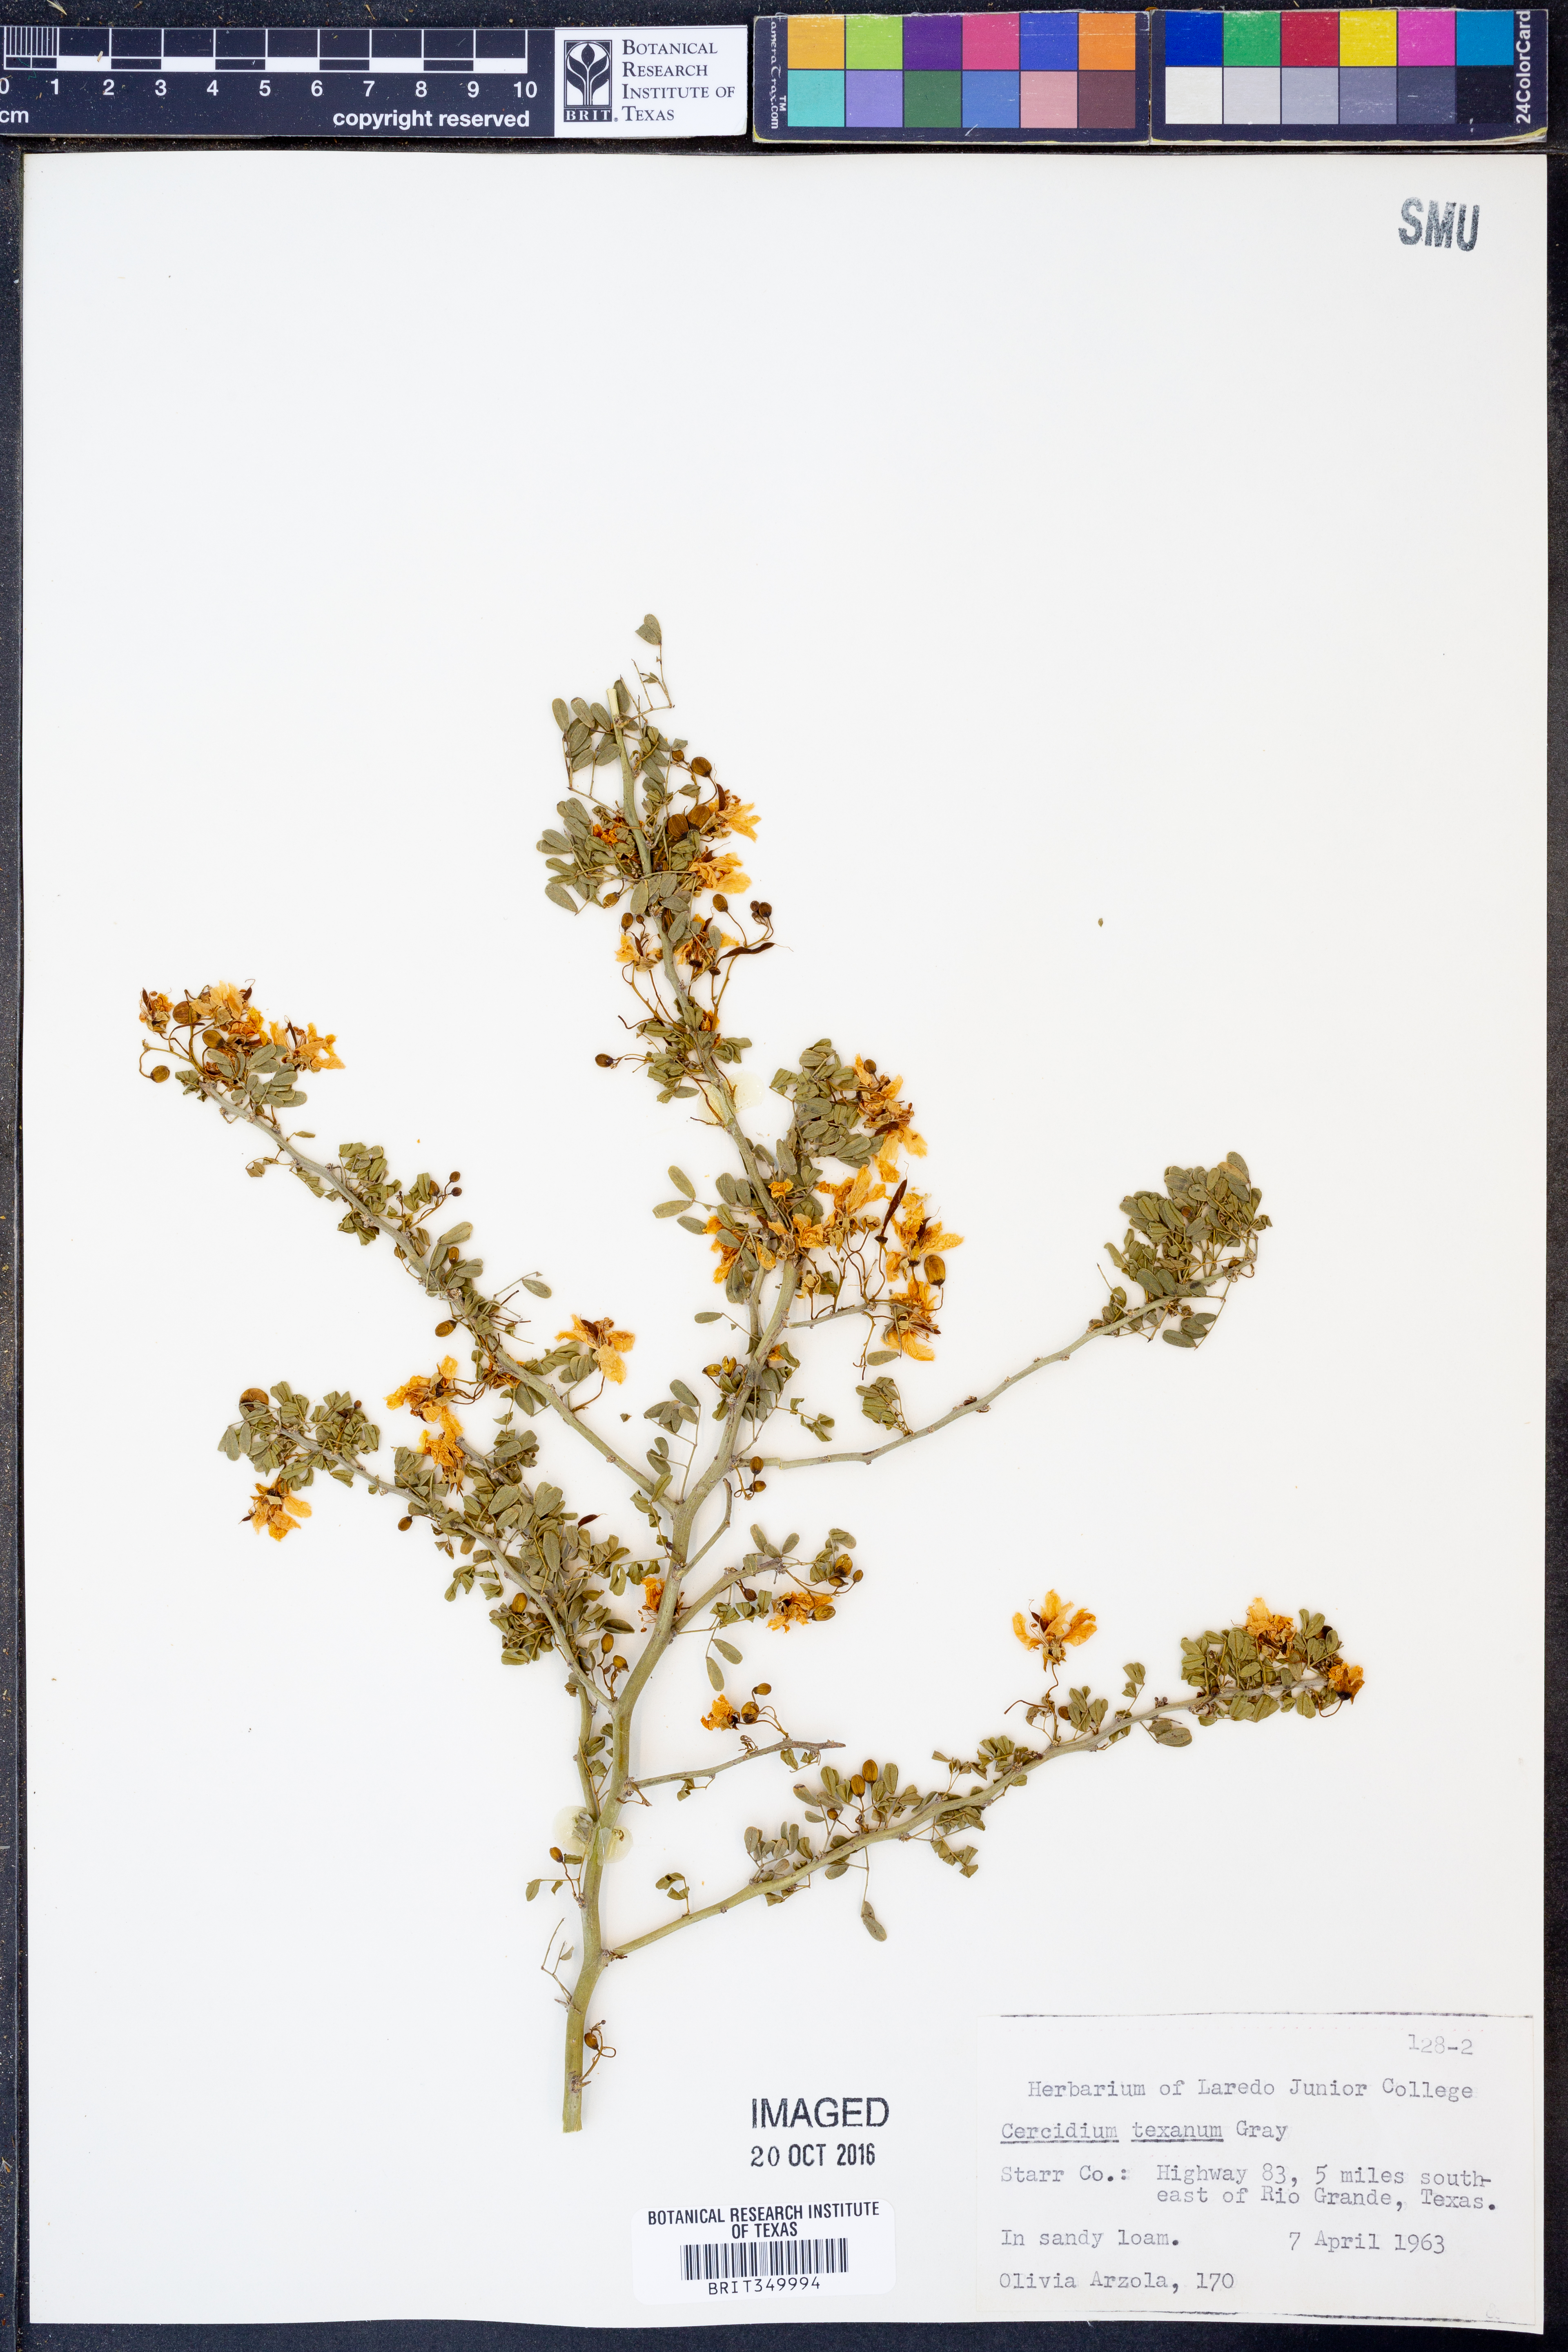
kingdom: Plantae
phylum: Tracheophyta
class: Magnoliopsida
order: Fabales
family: Fabaceae
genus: Parkinsonia
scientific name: Parkinsonia texana
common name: Texas paloverde
